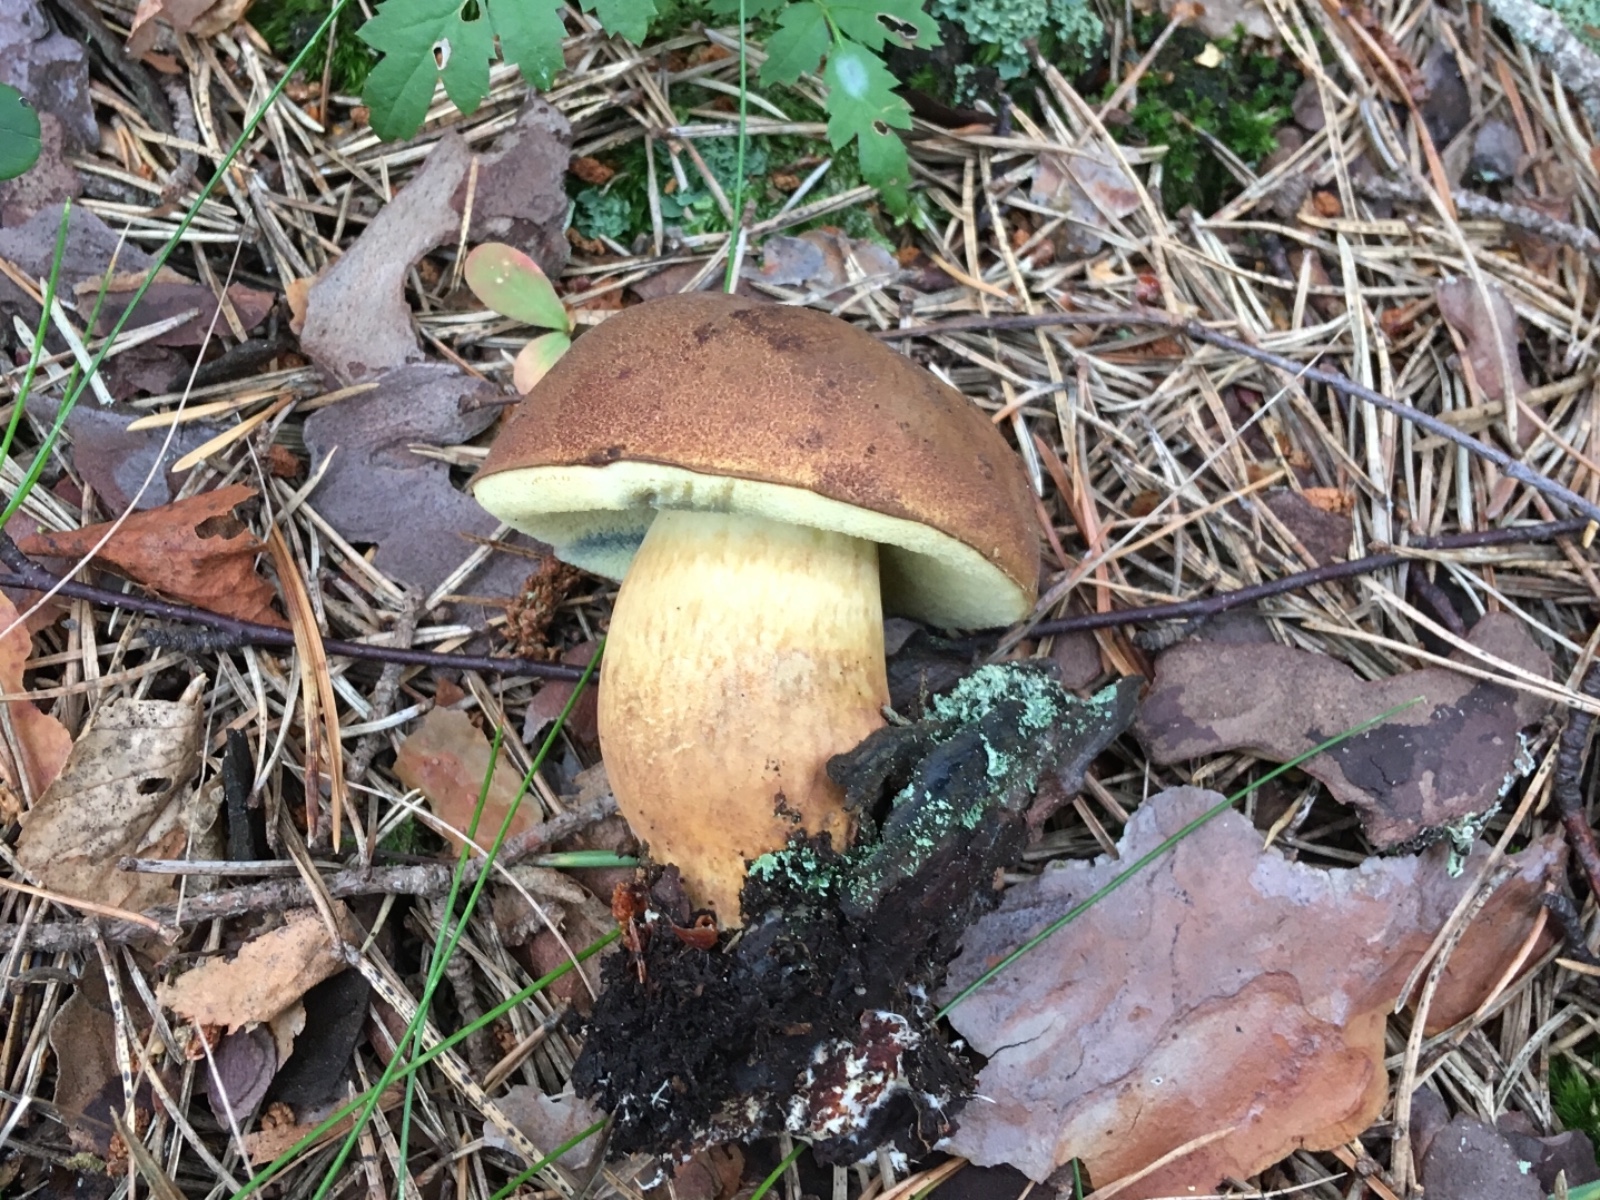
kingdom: Fungi
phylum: Basidiomycota
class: Agaricomycetes
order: Boletales
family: Boletaceae
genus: Imleria
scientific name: Imleria badia
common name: brunstokket rørhat
